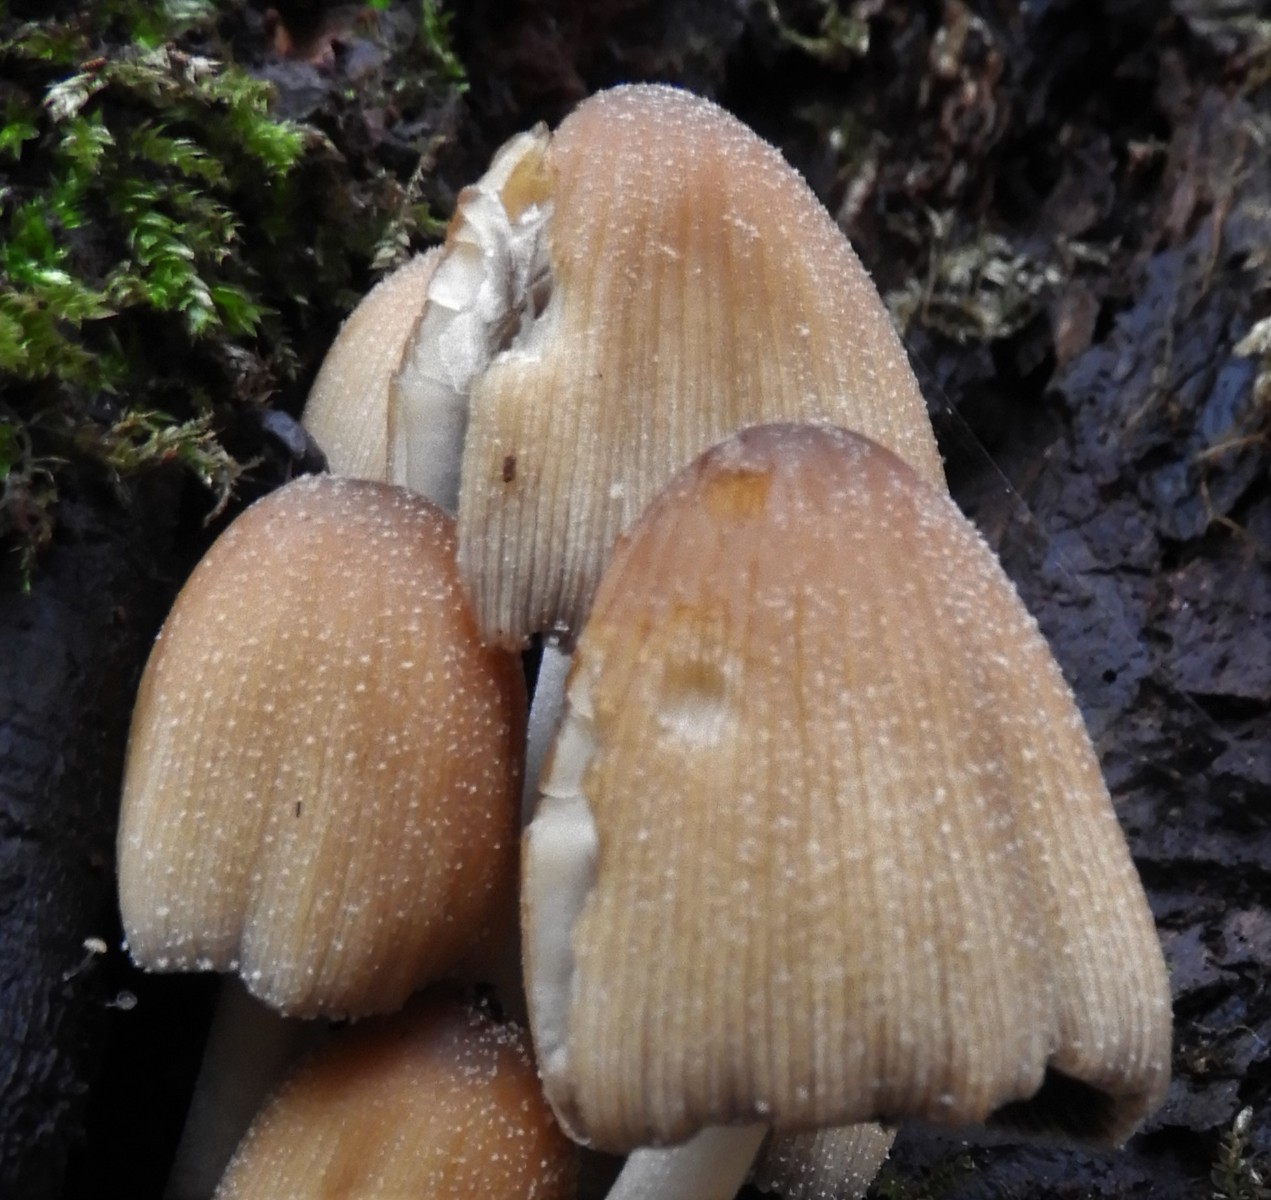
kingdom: Fungi
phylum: Basidiomycota
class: Agaricomycetes
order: Agaricales
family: Psathyrellaceae
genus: Coprinellus
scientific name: Coprinellus micaceus
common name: glimmer-blækhat
